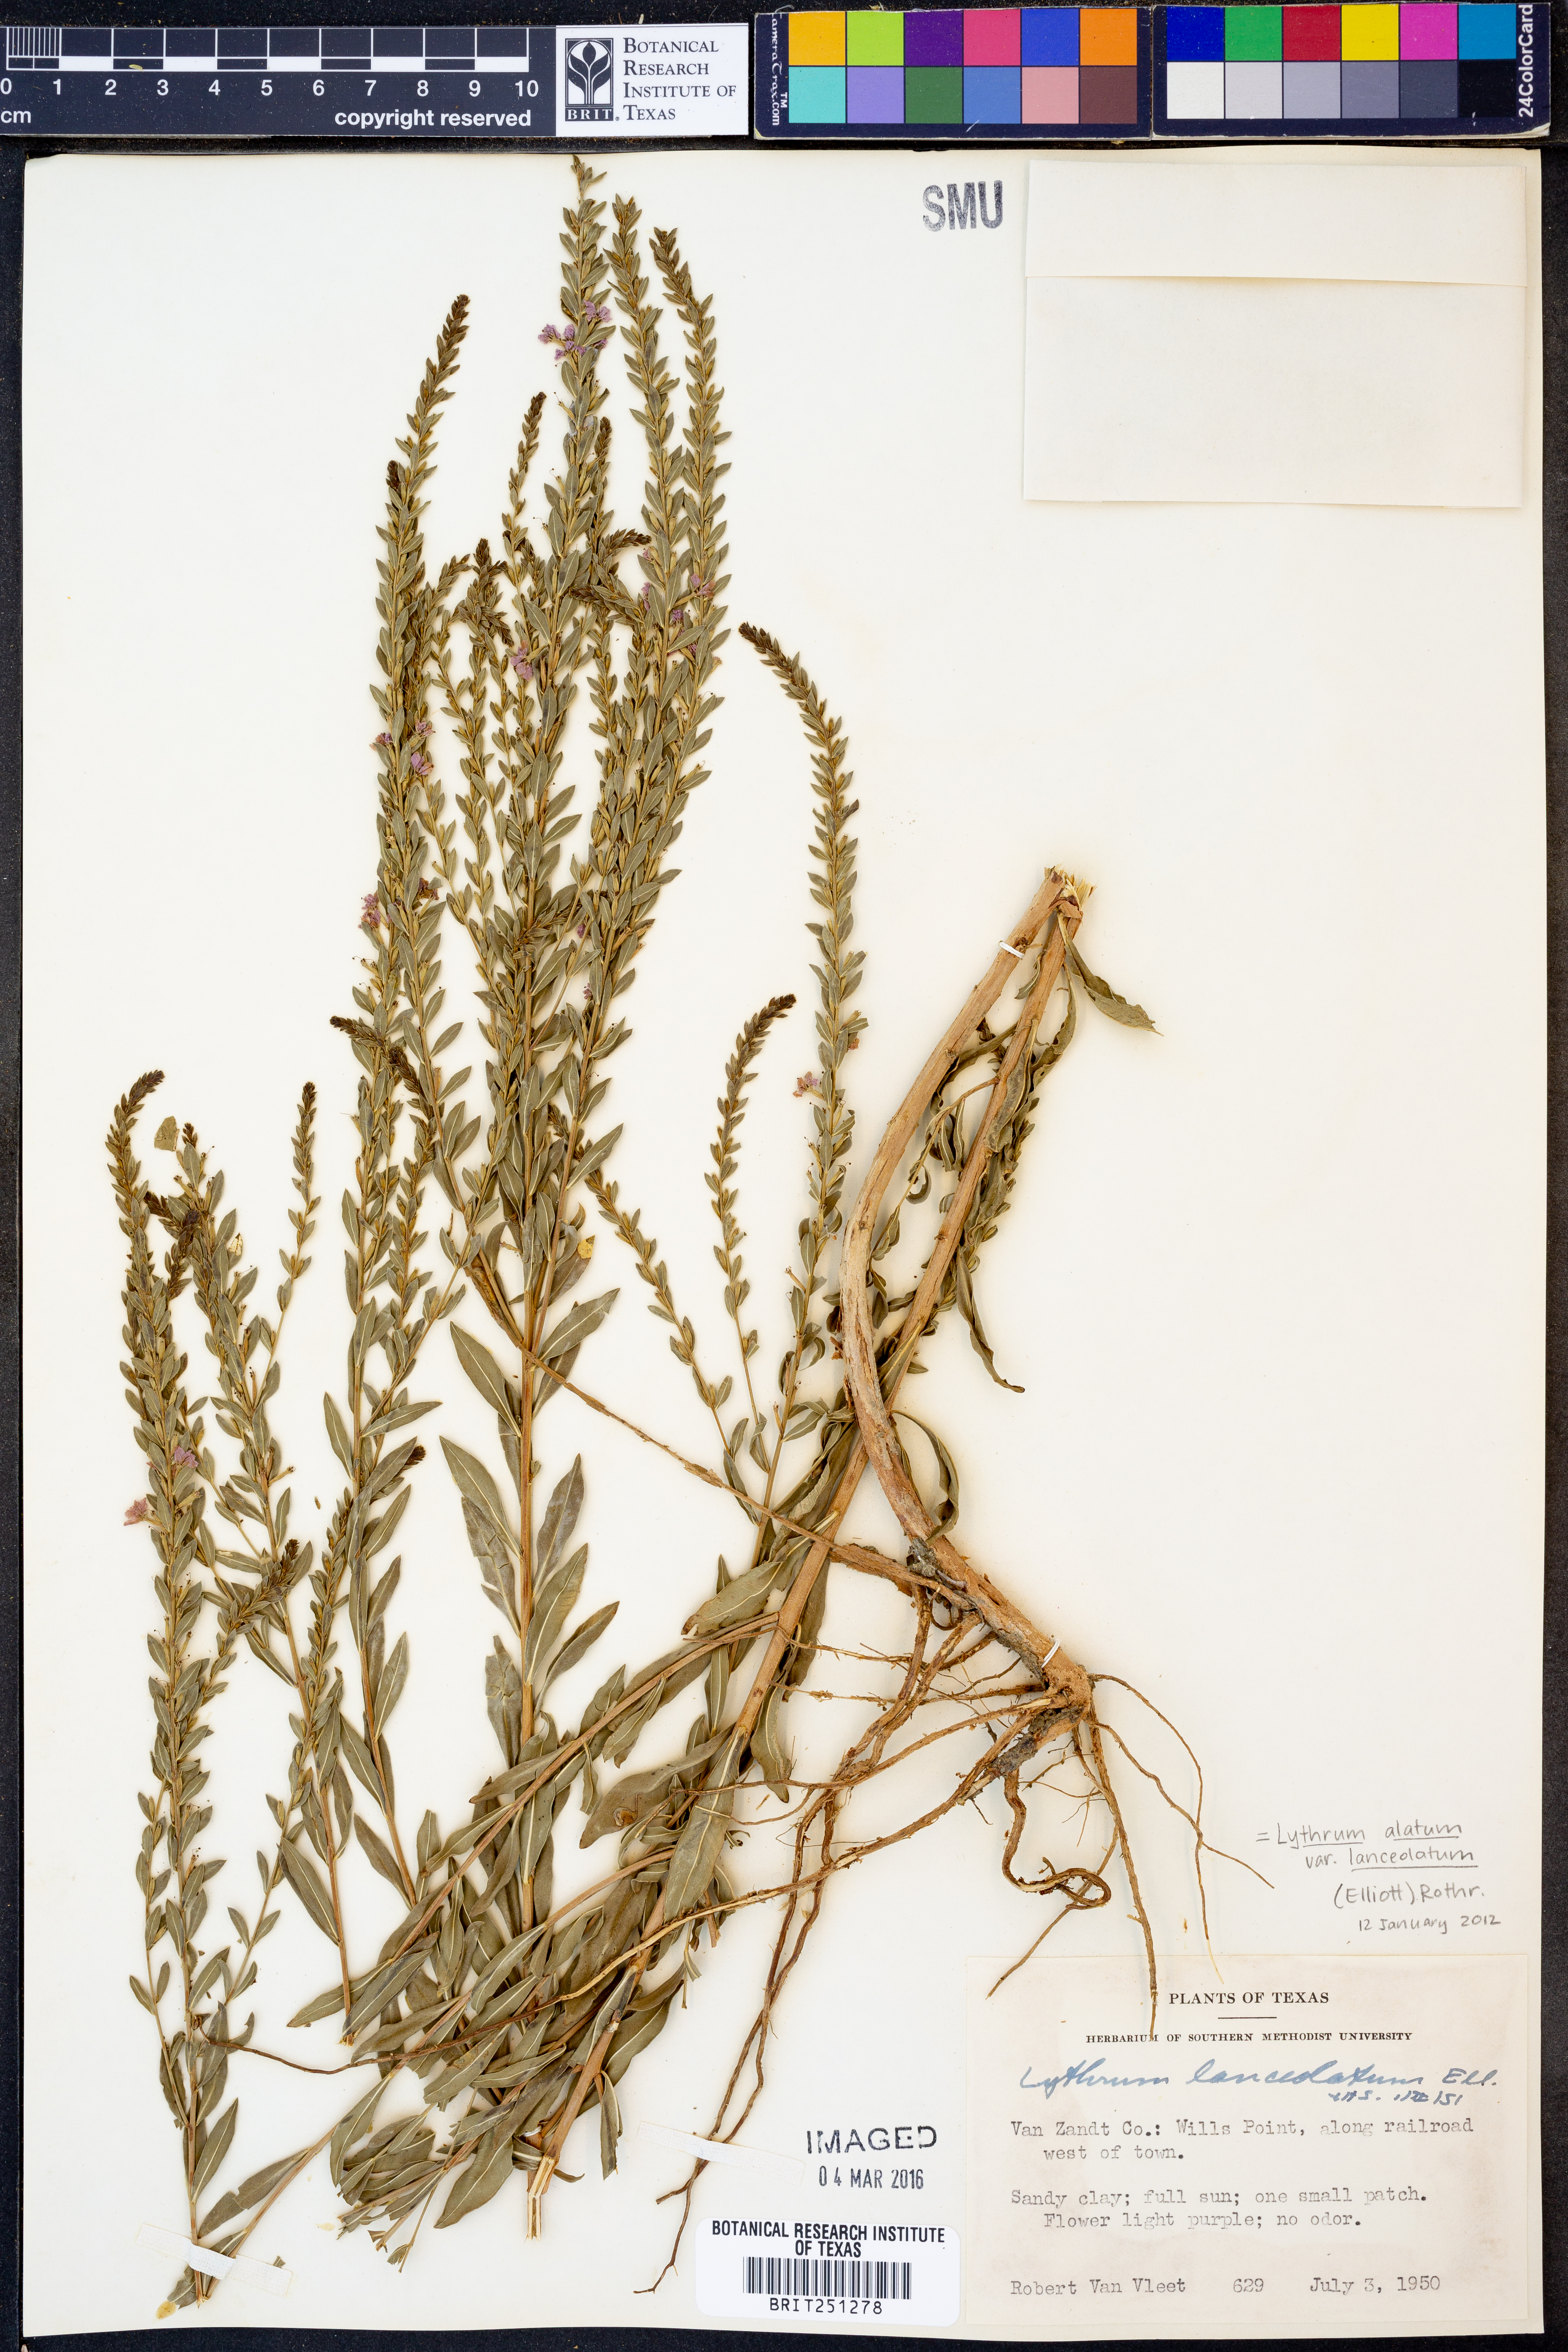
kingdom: Plantae
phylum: Tracheophyta
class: Magnoliopsida
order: Myrtales
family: Lythraceae
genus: Lythrum
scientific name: Lythrum alatum
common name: Winged loosestrife
